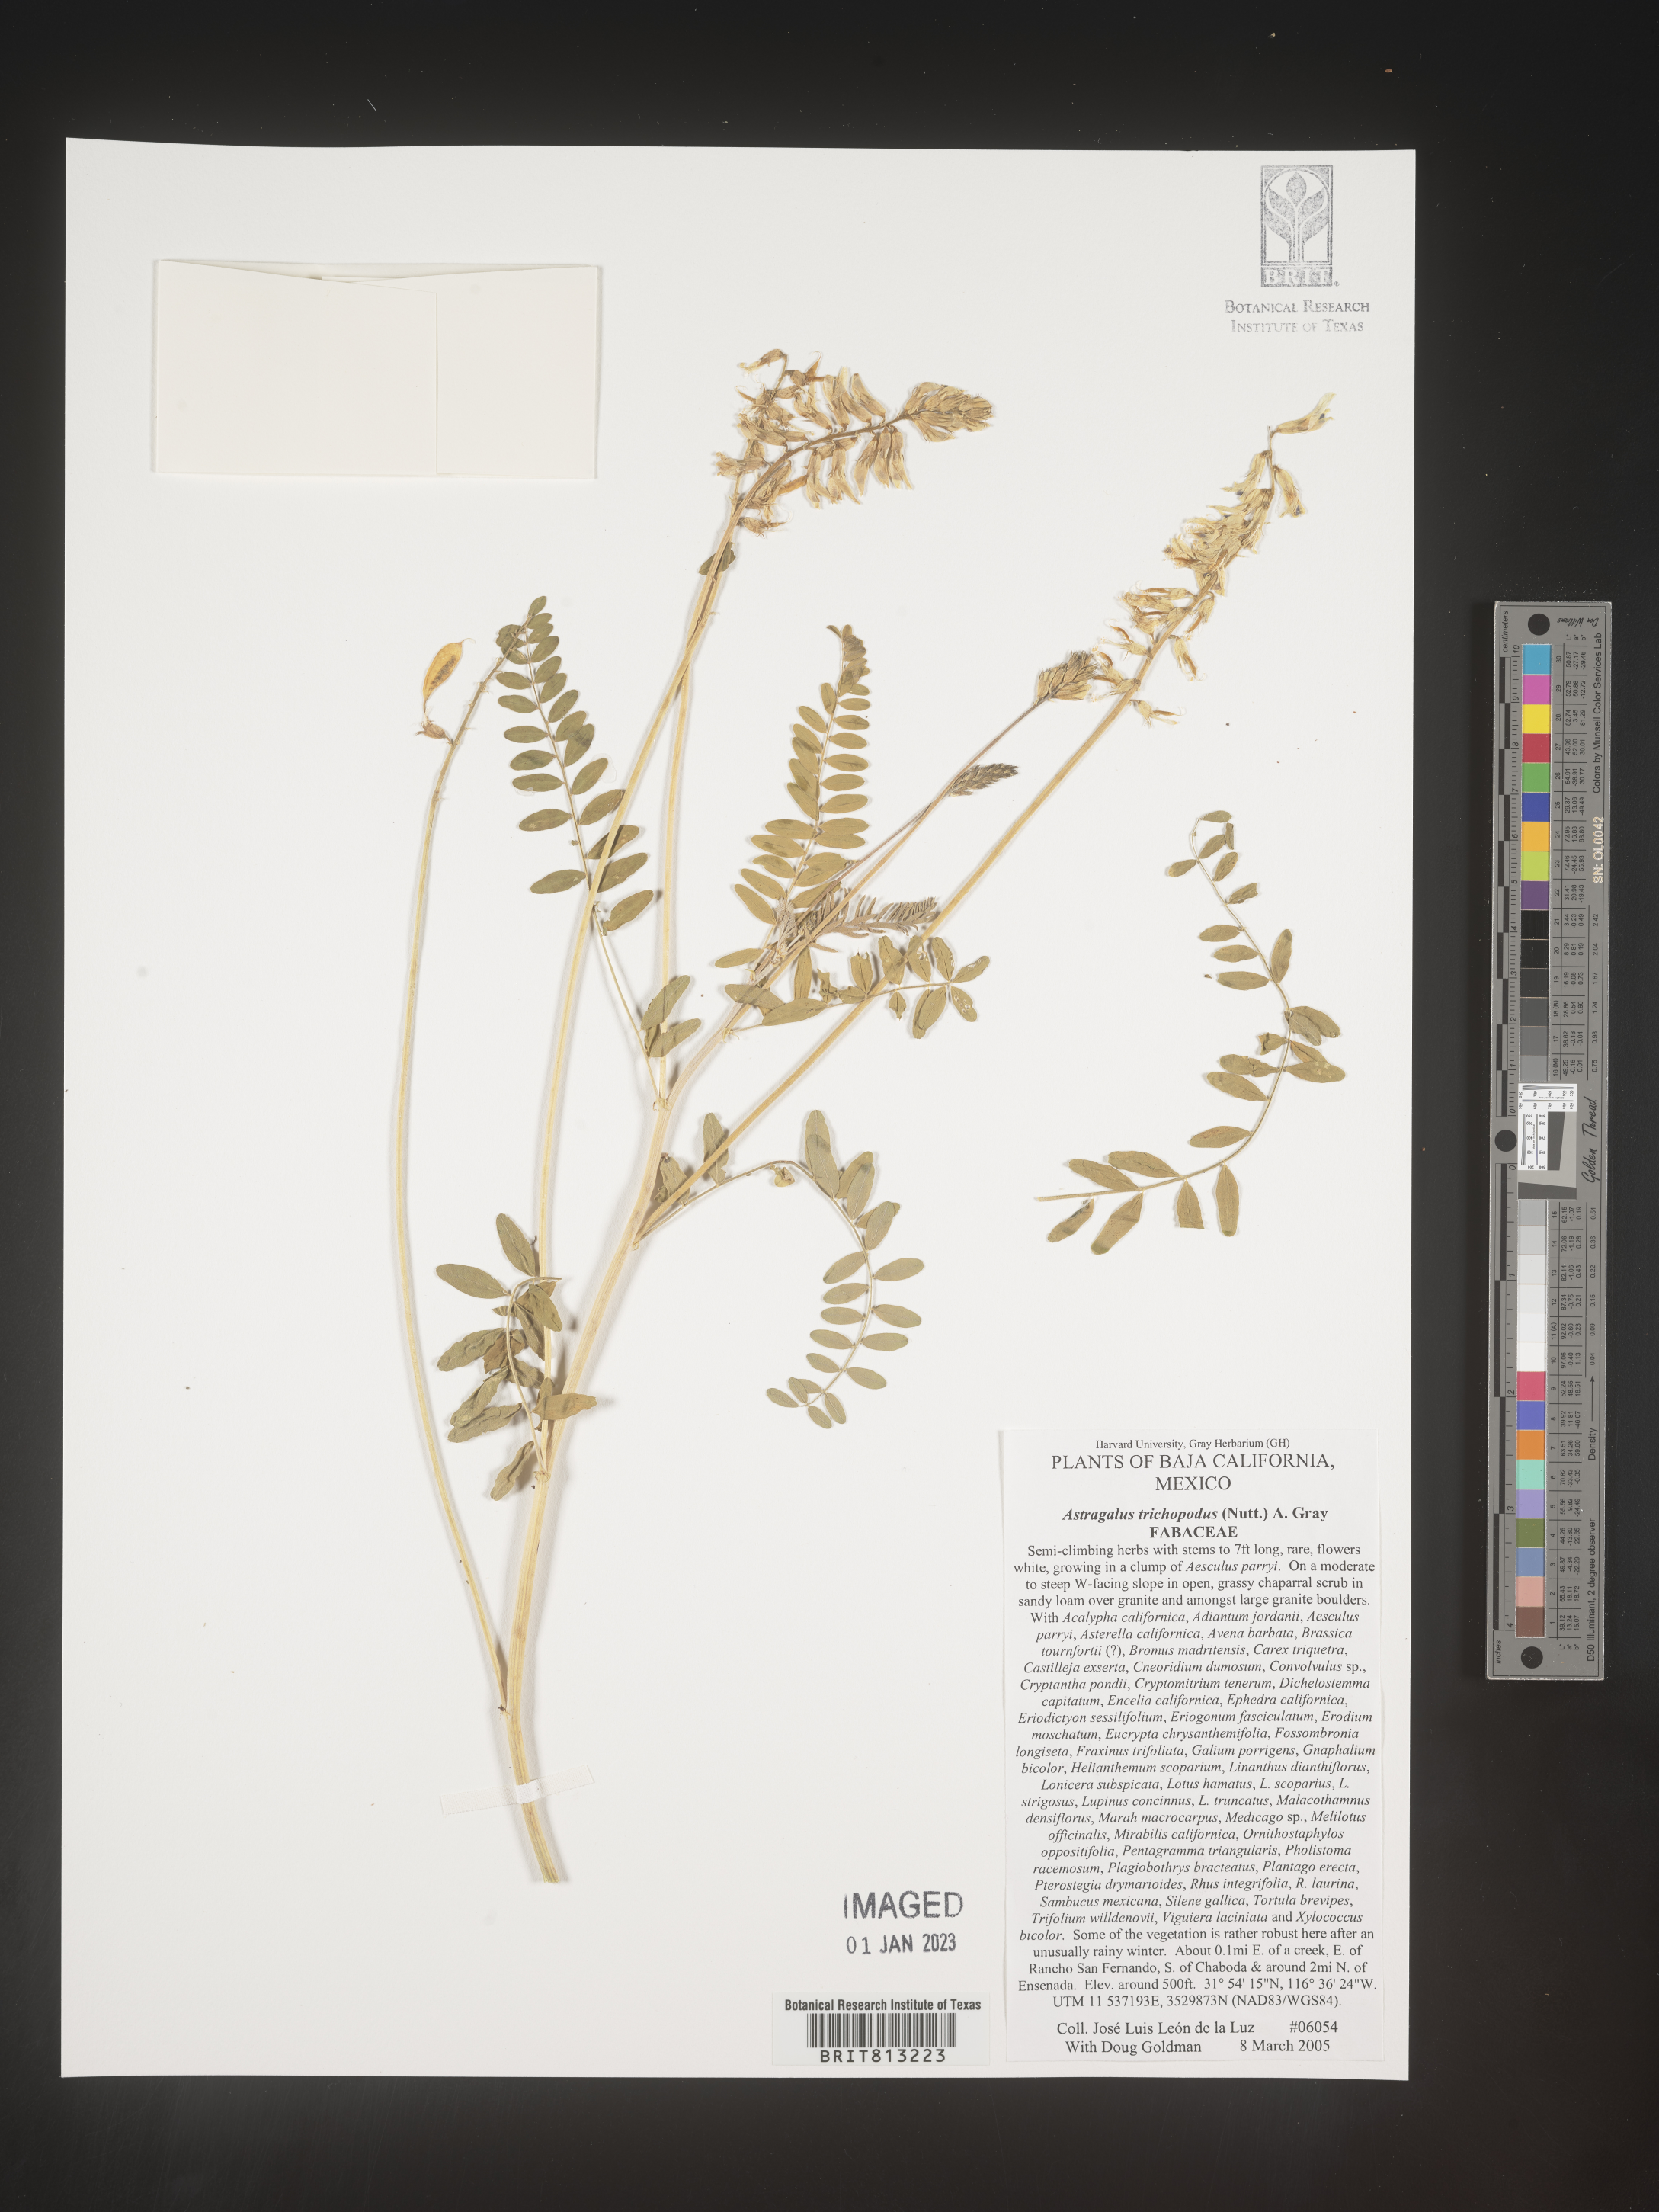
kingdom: Plantae
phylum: Tracheophyta
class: Magnoliopsida
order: Fabales
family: Fabaceae
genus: Astragalus
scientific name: Astragalus
